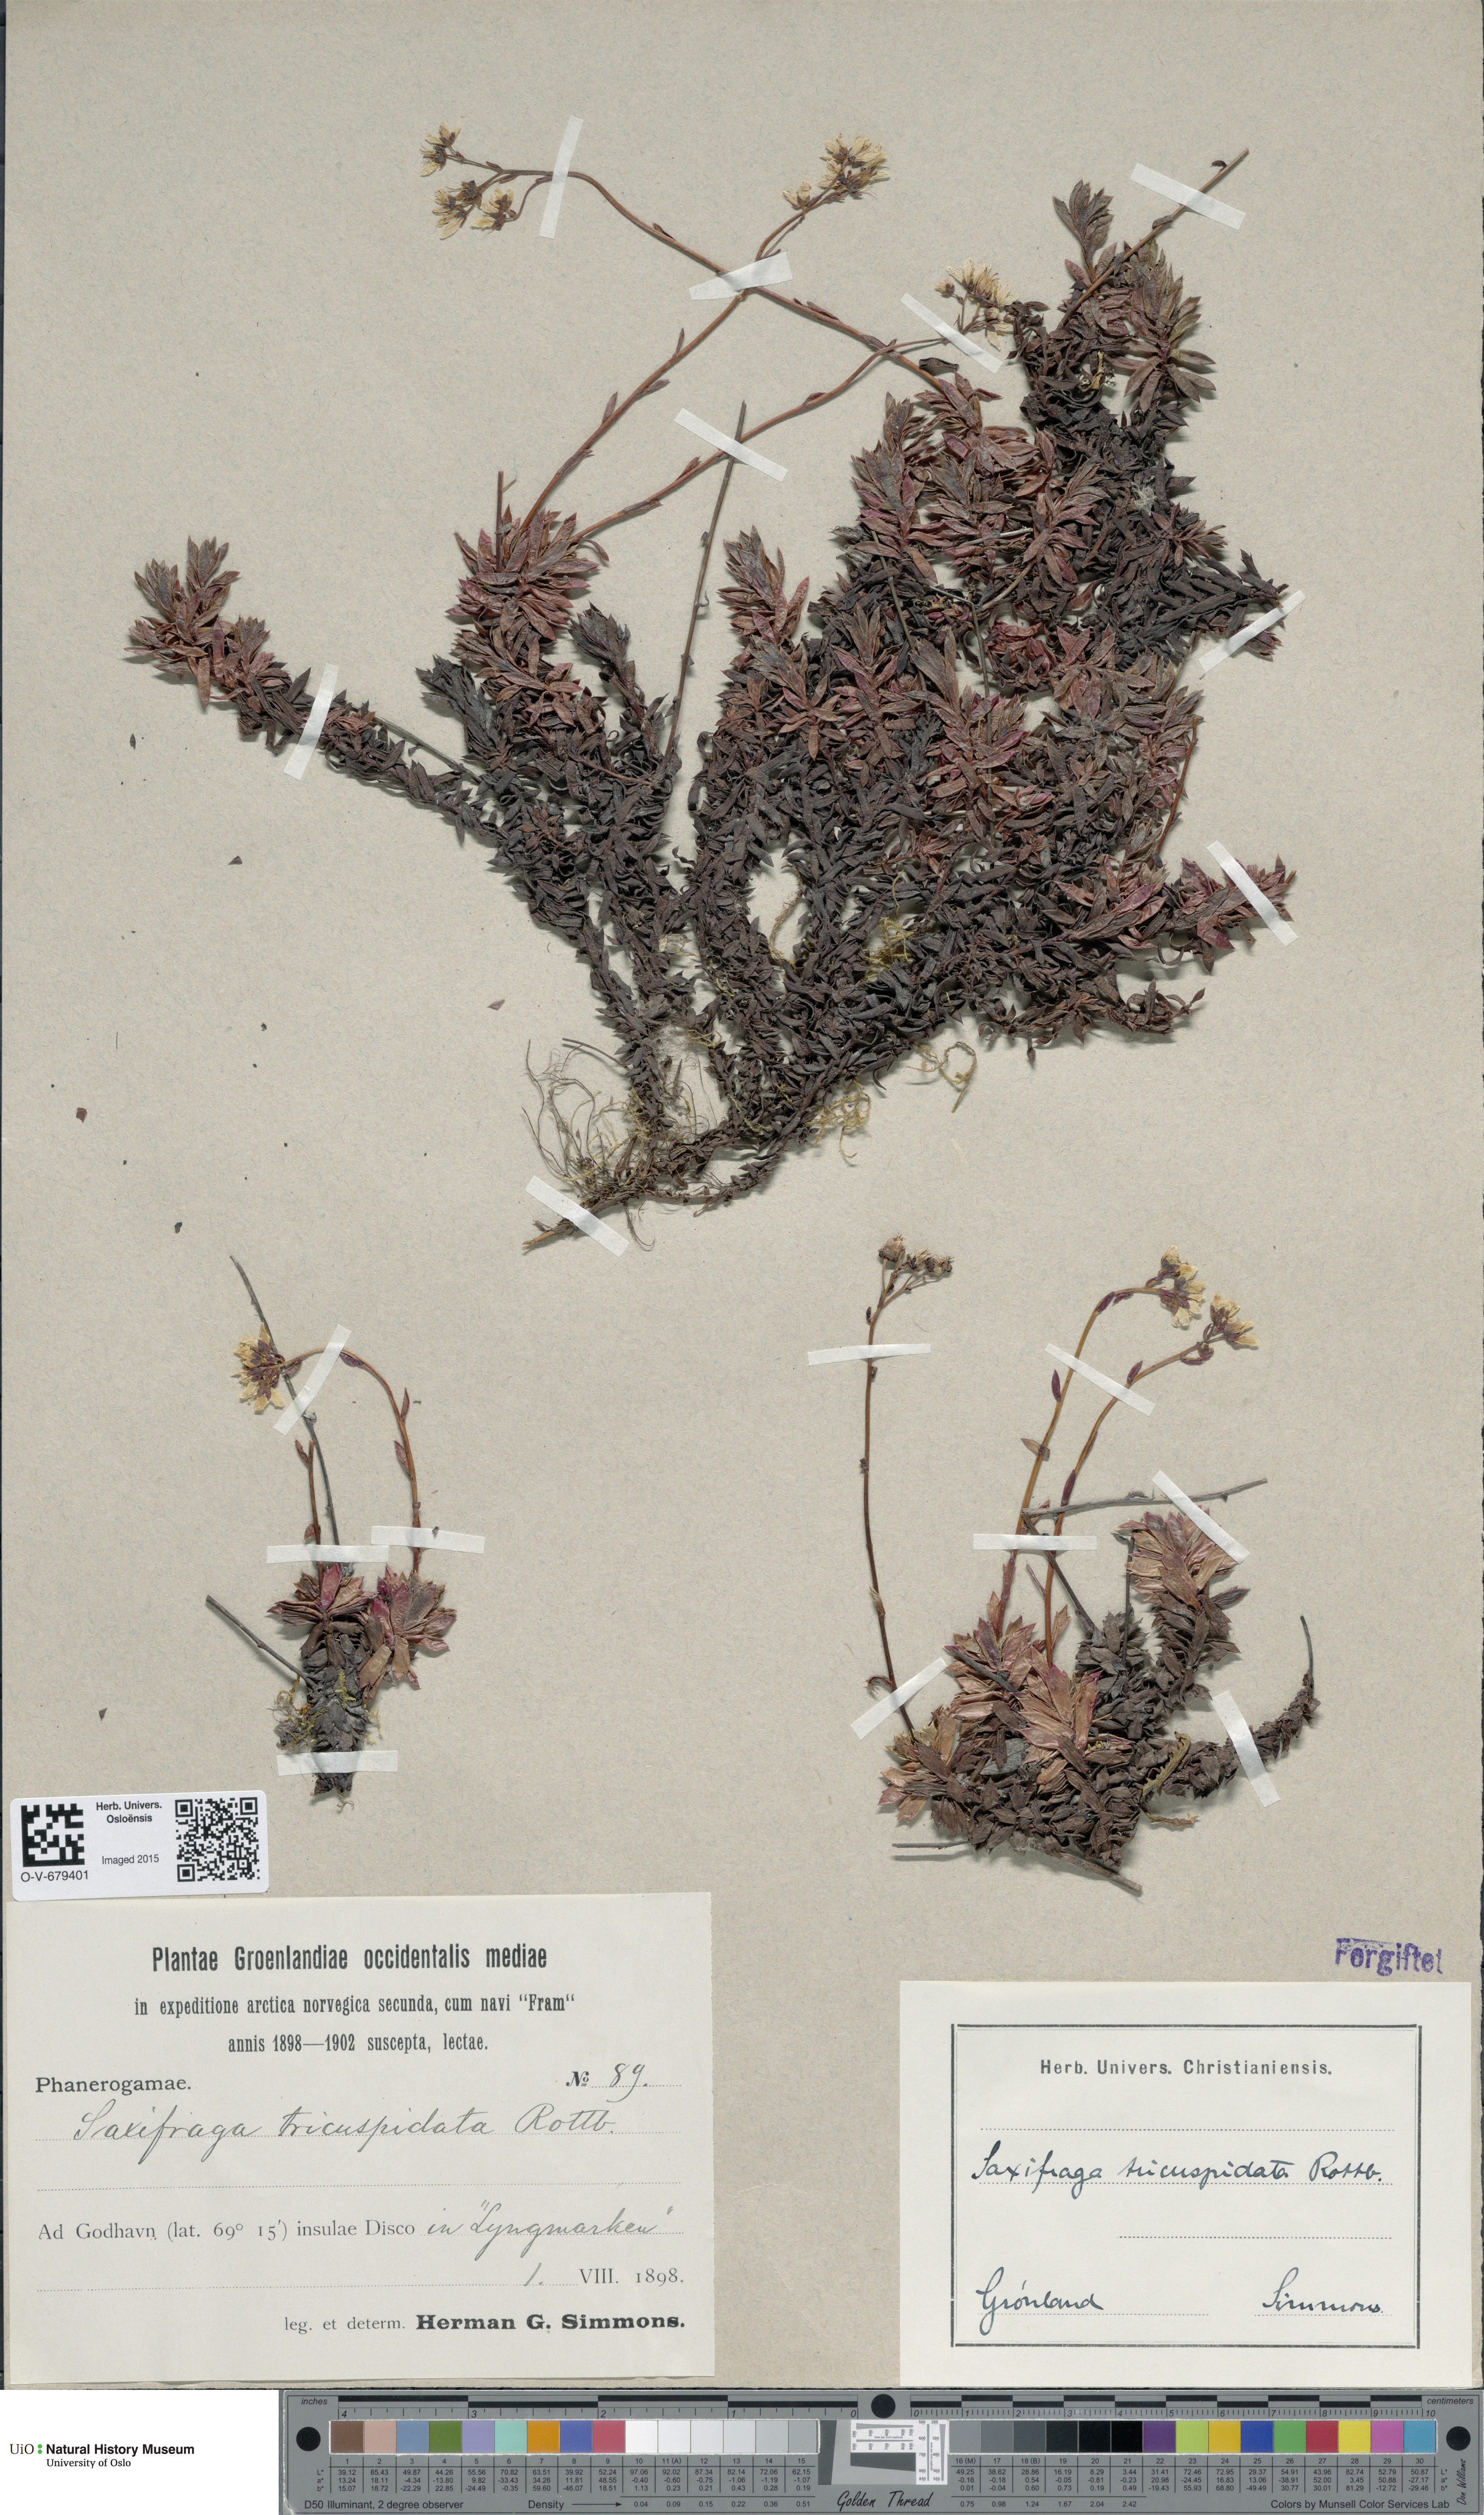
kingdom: Plantae
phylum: Tracheophyta
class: Magnoliopsida
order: Saxifragales
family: Saxifragaceae
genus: Saxifraga
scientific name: Saxifraga tricuspidata
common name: Prickly saxifrage
